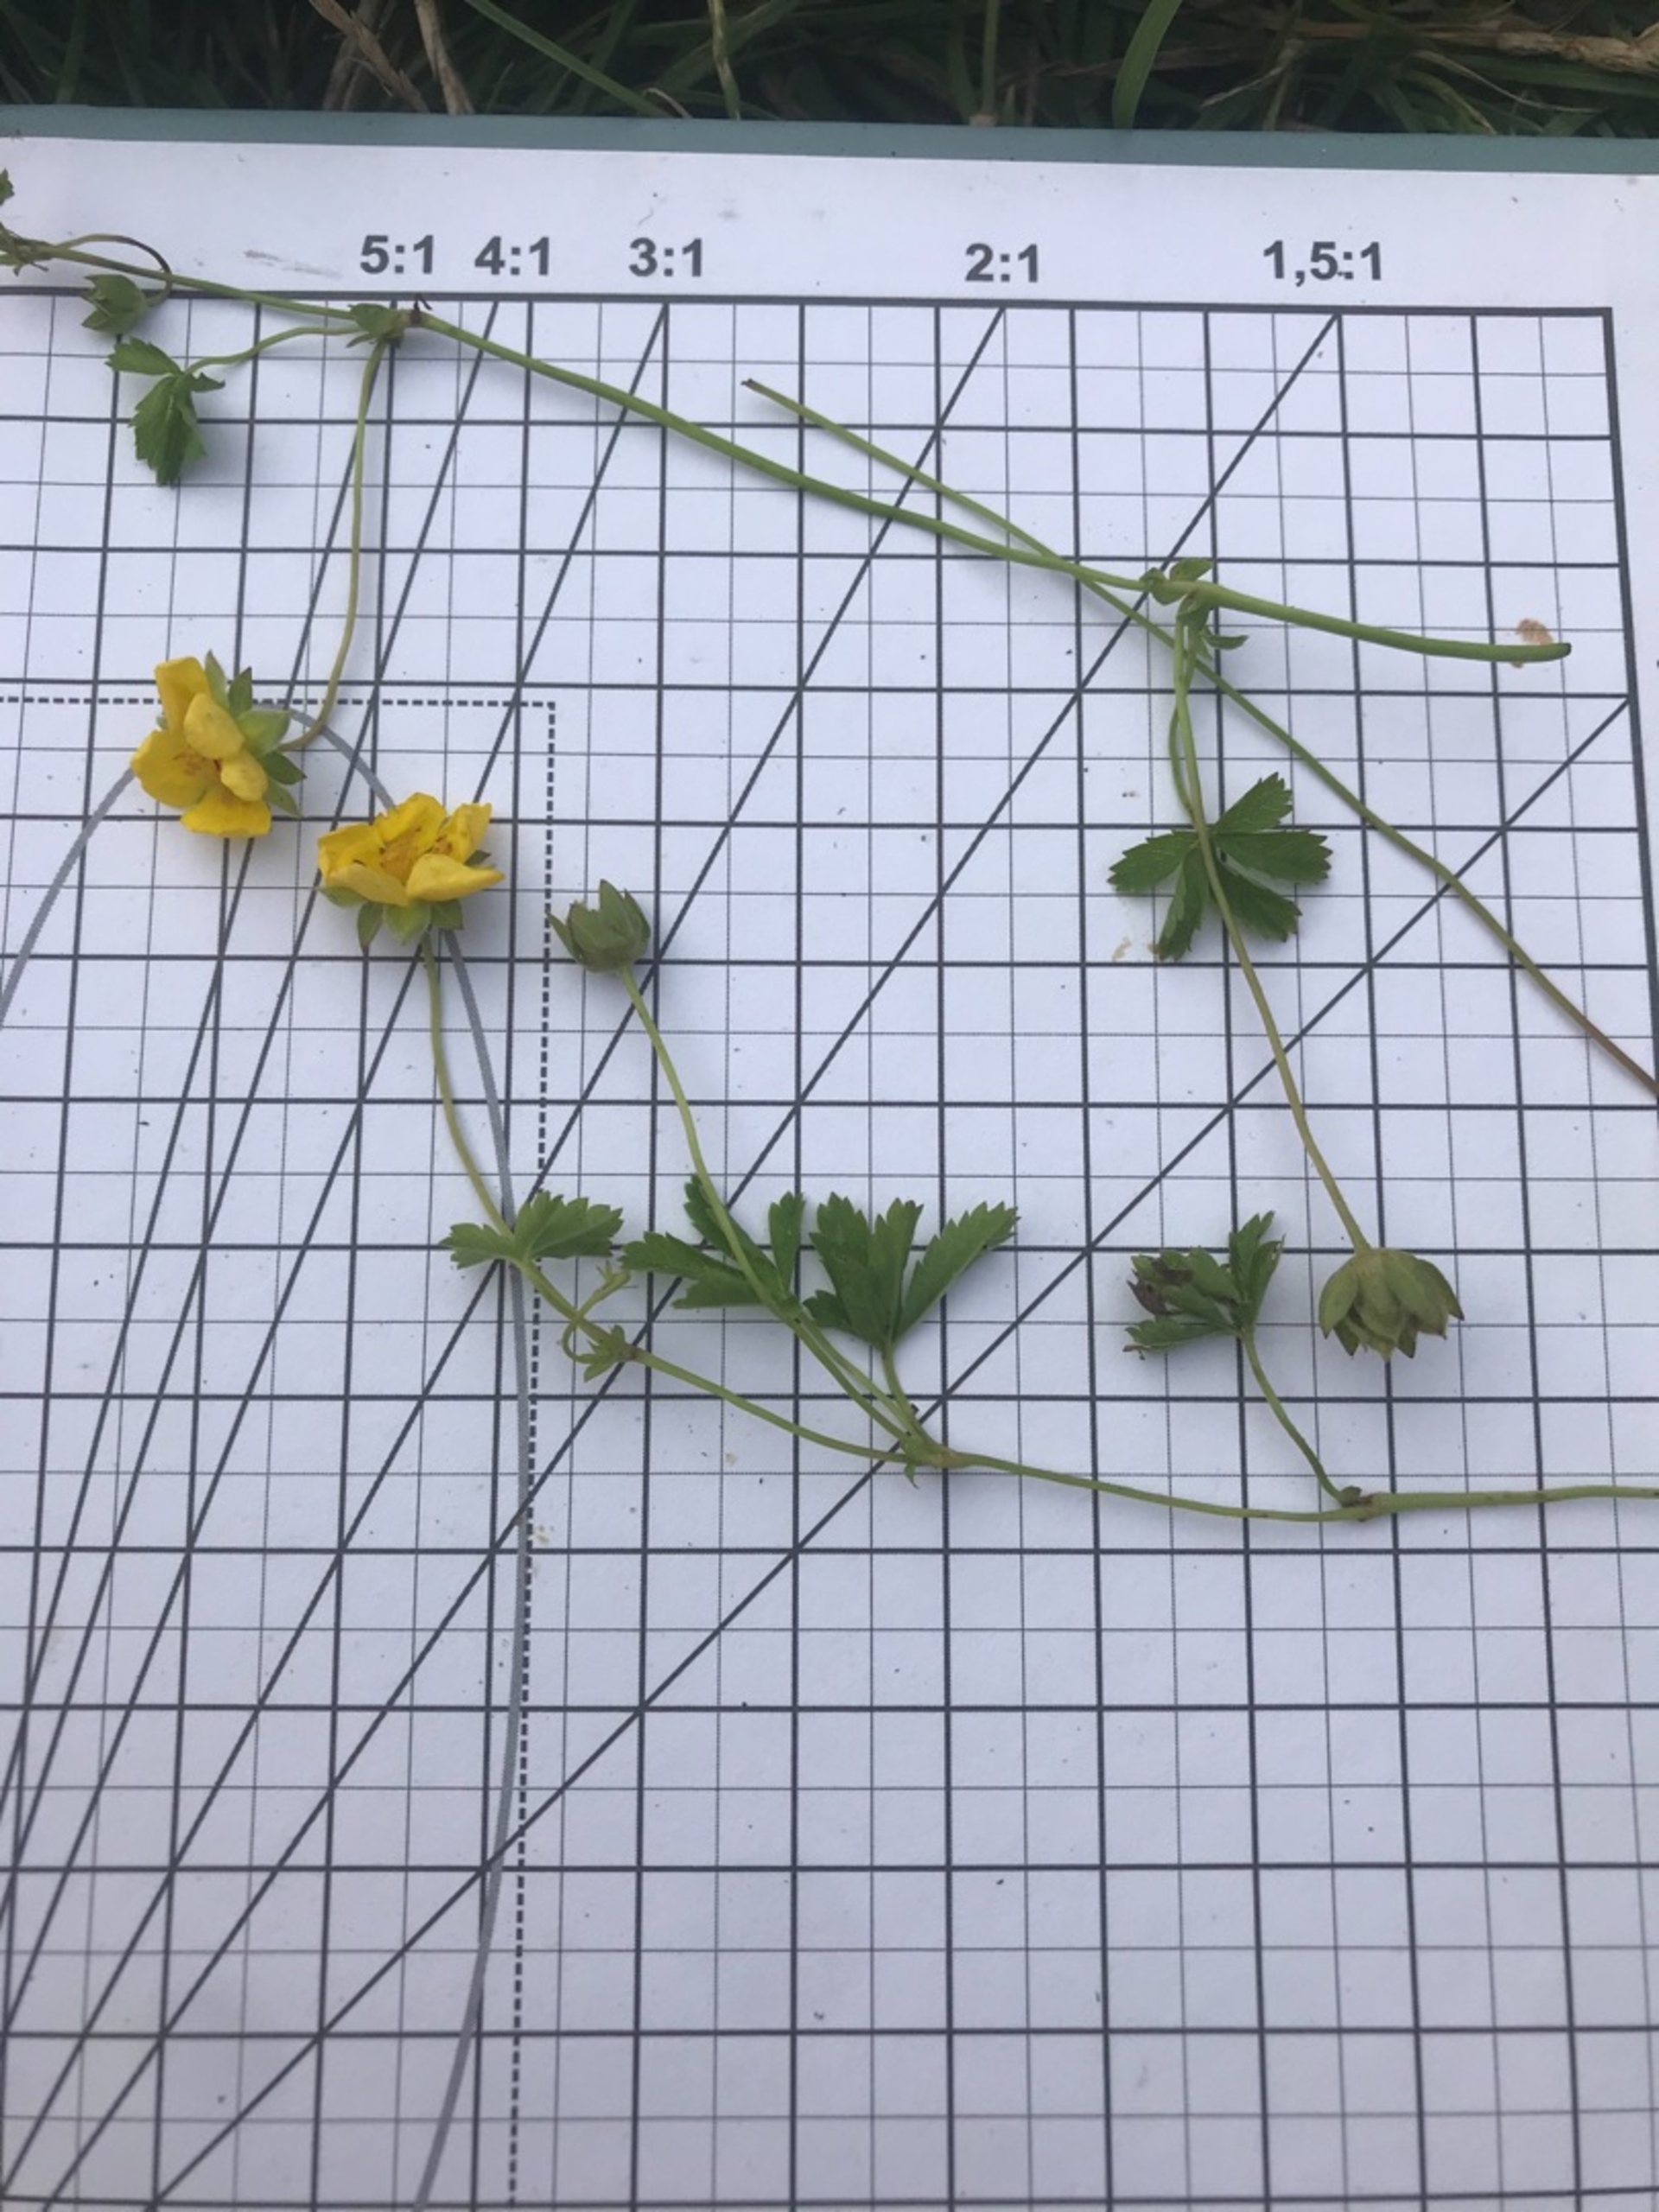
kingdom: Plantae
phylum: Tracheophyta
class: Magnoliopsida
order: Rosales
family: Rosaceae
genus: Potentilla
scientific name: Potentilla reptans
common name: Krybende potentil
